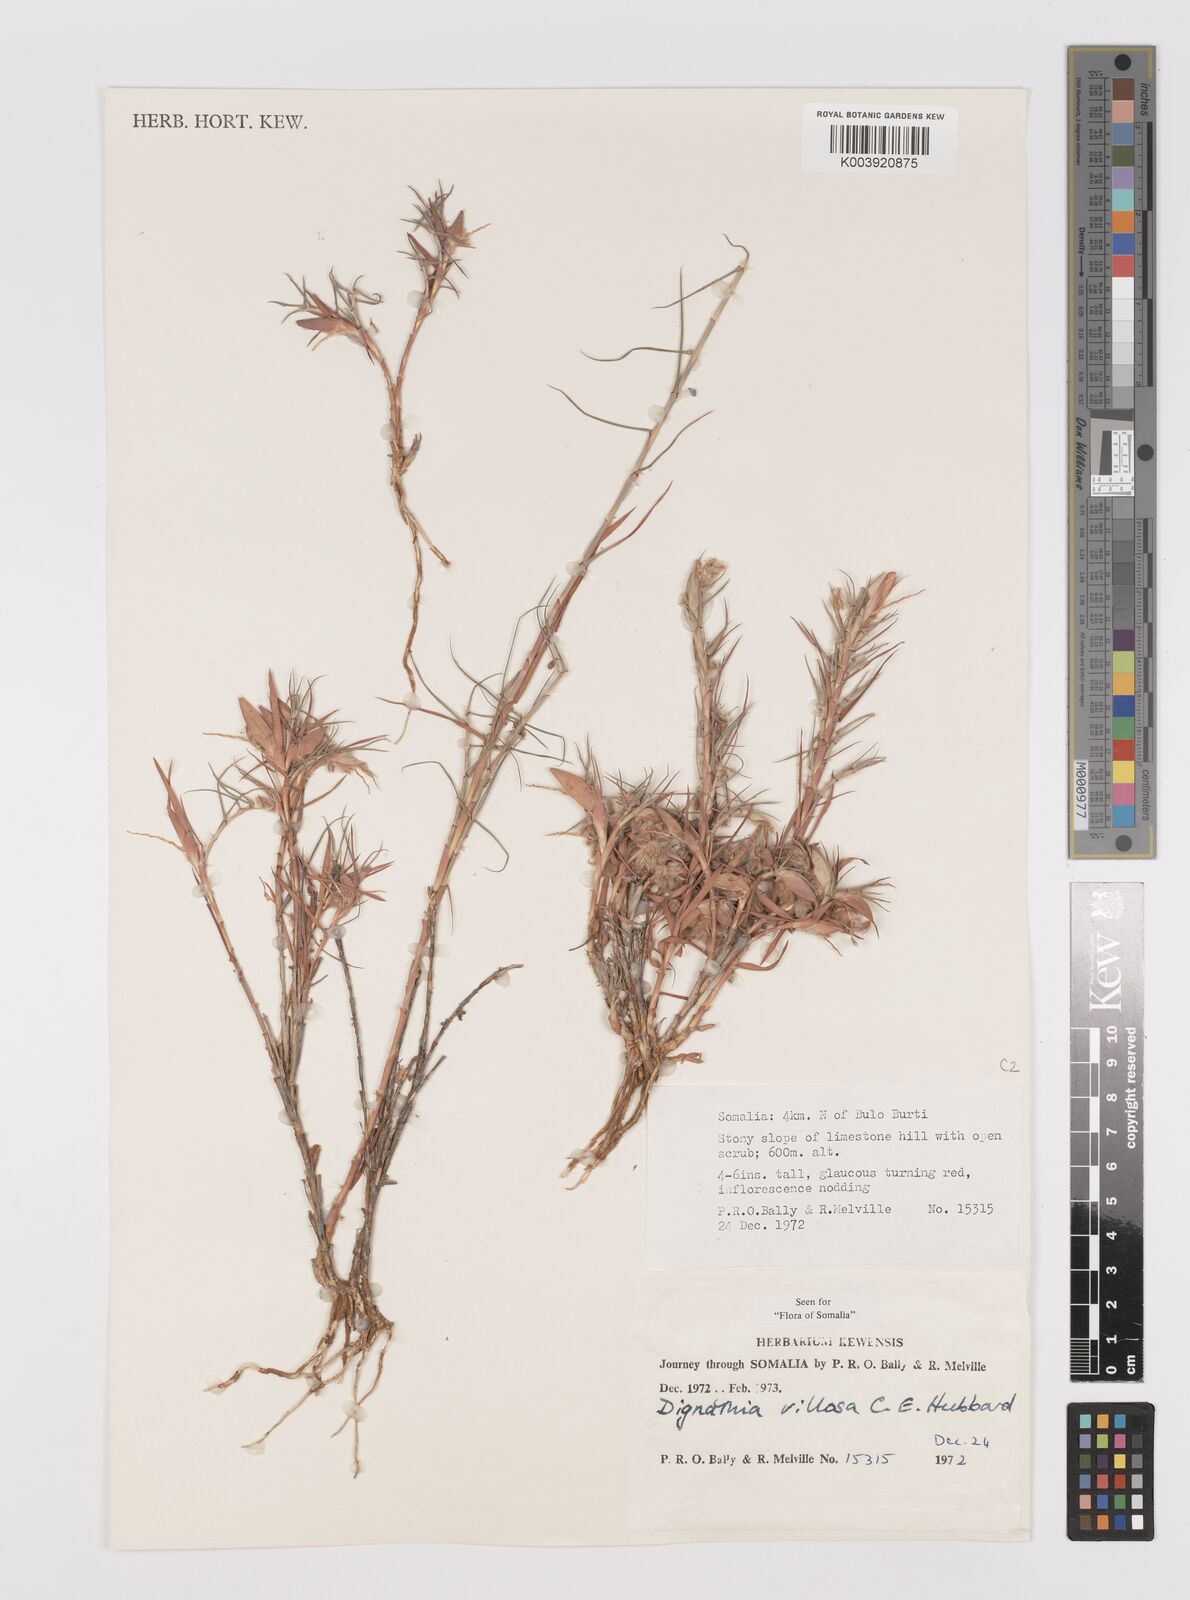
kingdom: Plantae
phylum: Tracheophyta
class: Liliopsida
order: Poales
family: Poaceae
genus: Dignathia
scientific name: Dignathia villosa
